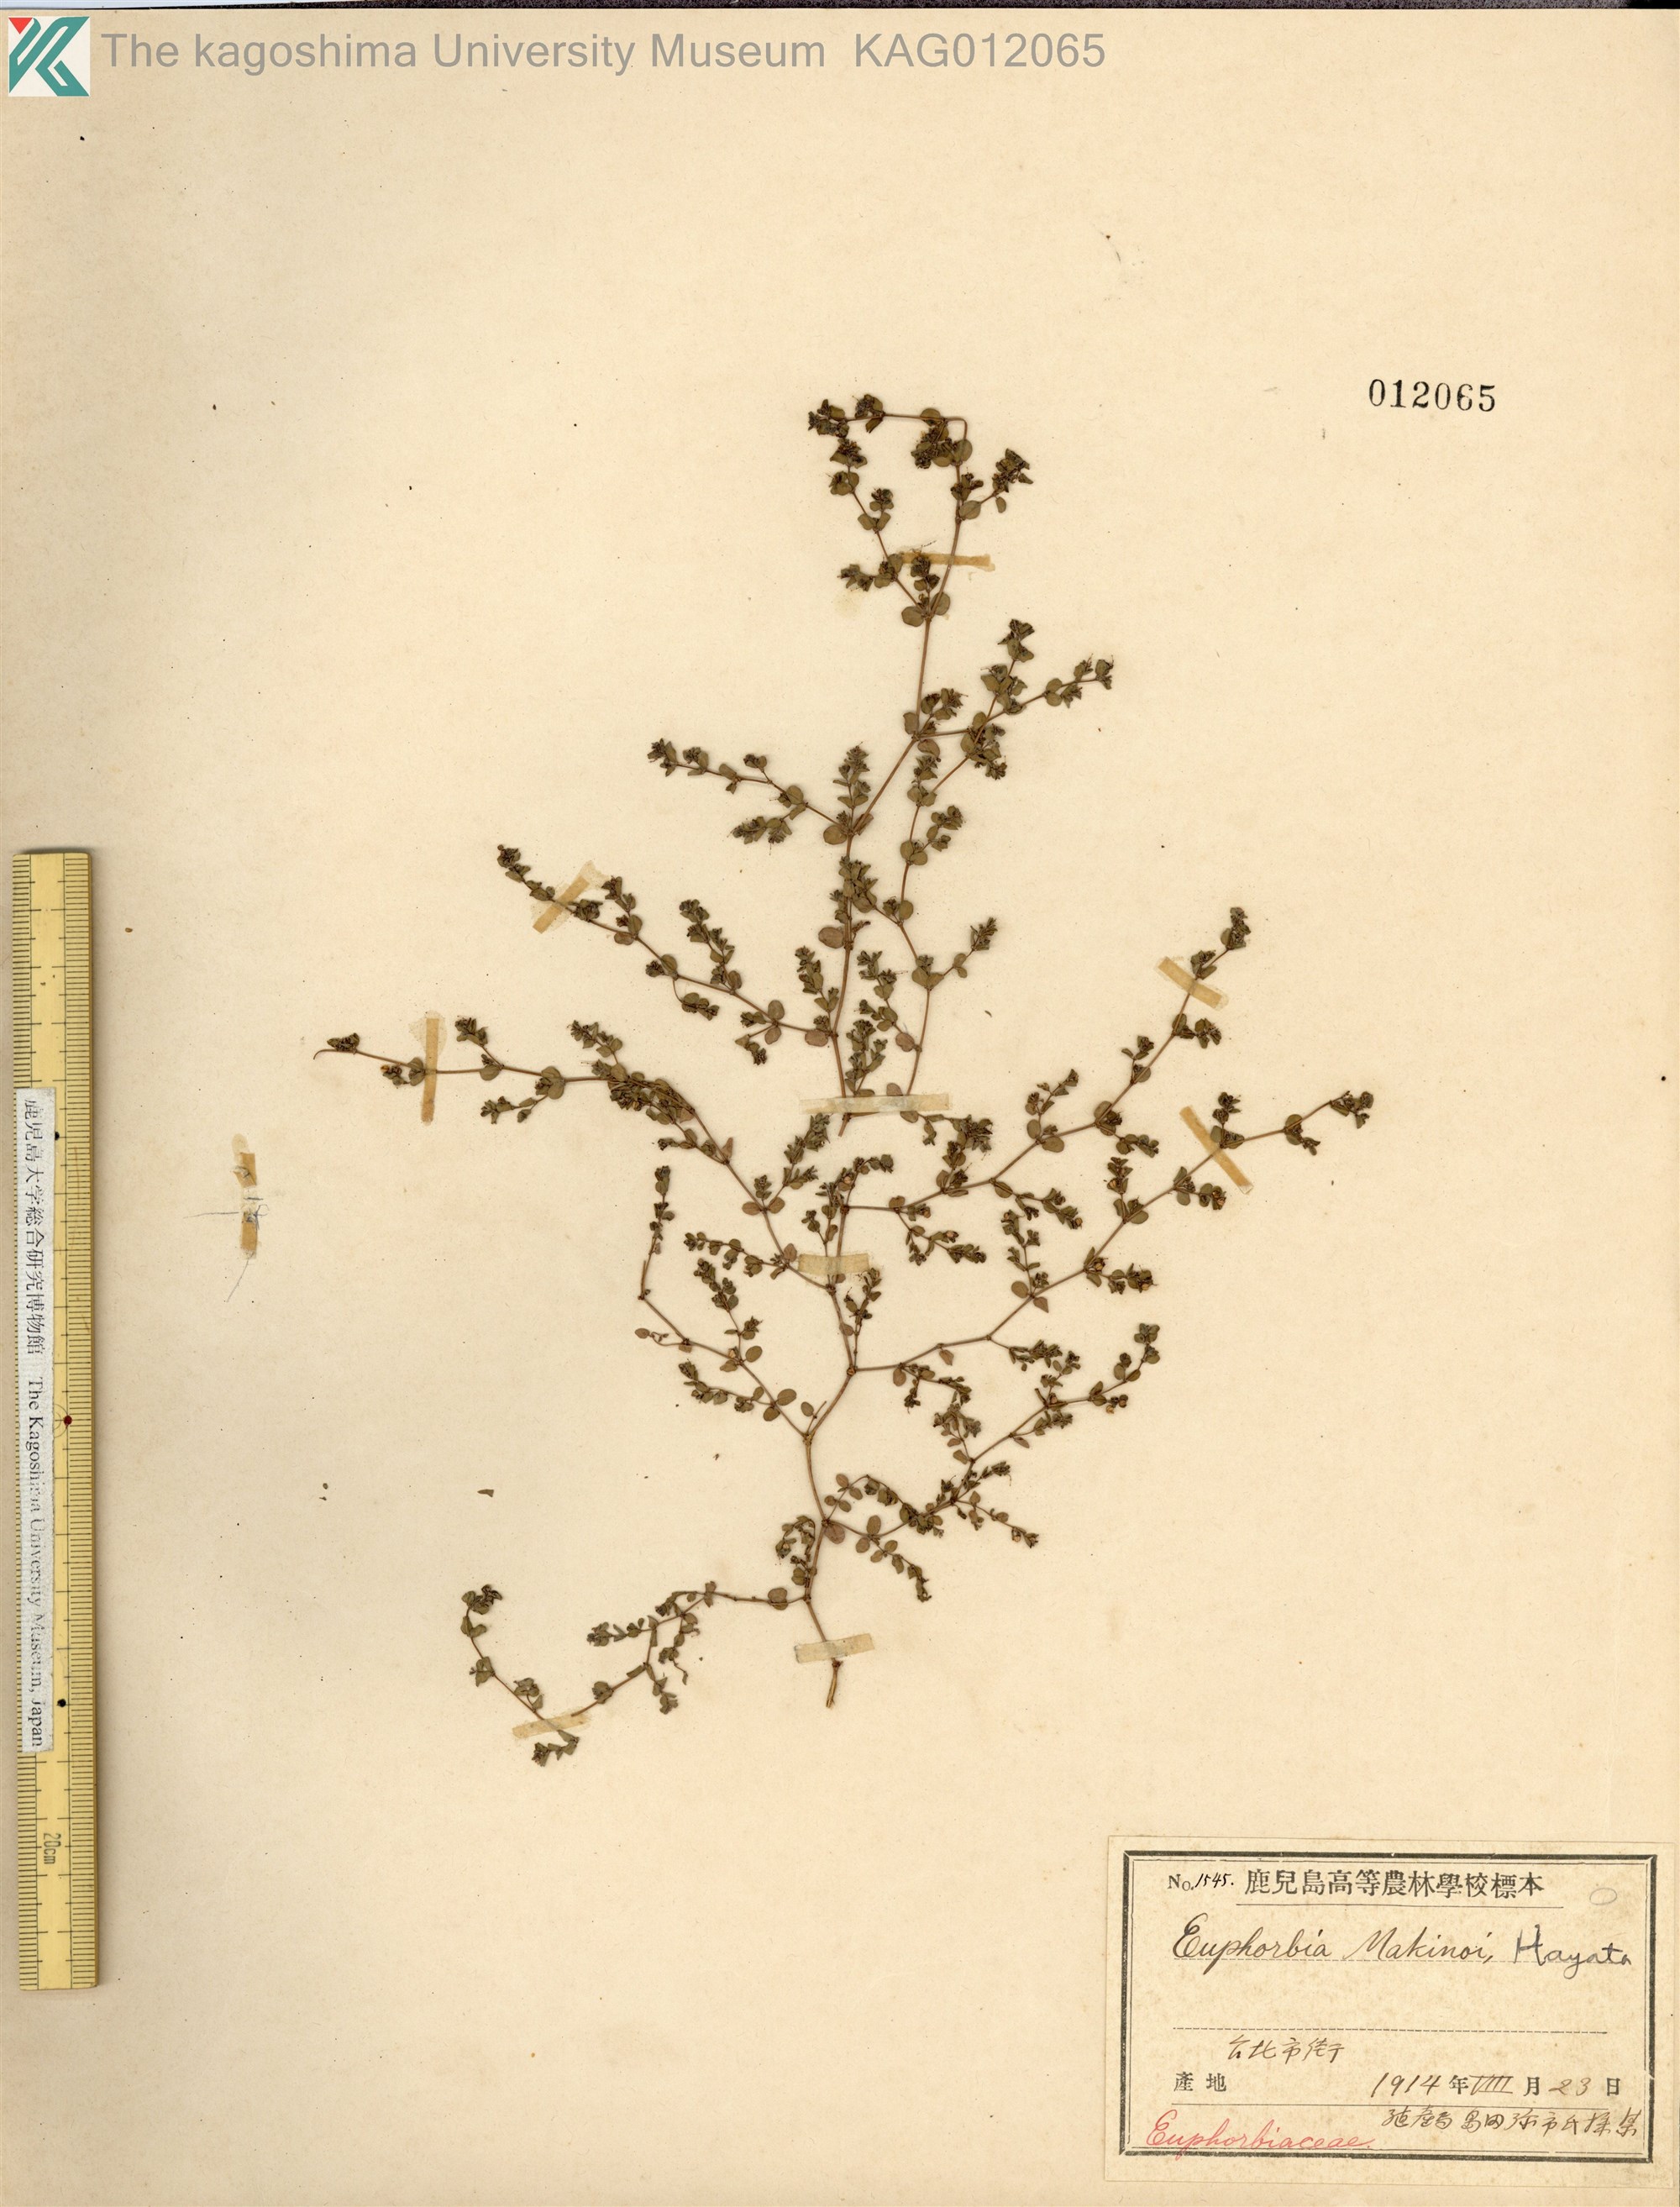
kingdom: Plantae
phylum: Tracheophyta
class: Magnoliopsida
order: Malpighiales
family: Euphorbiaceae
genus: Euphorbia
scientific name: Euphorbia makinoi
